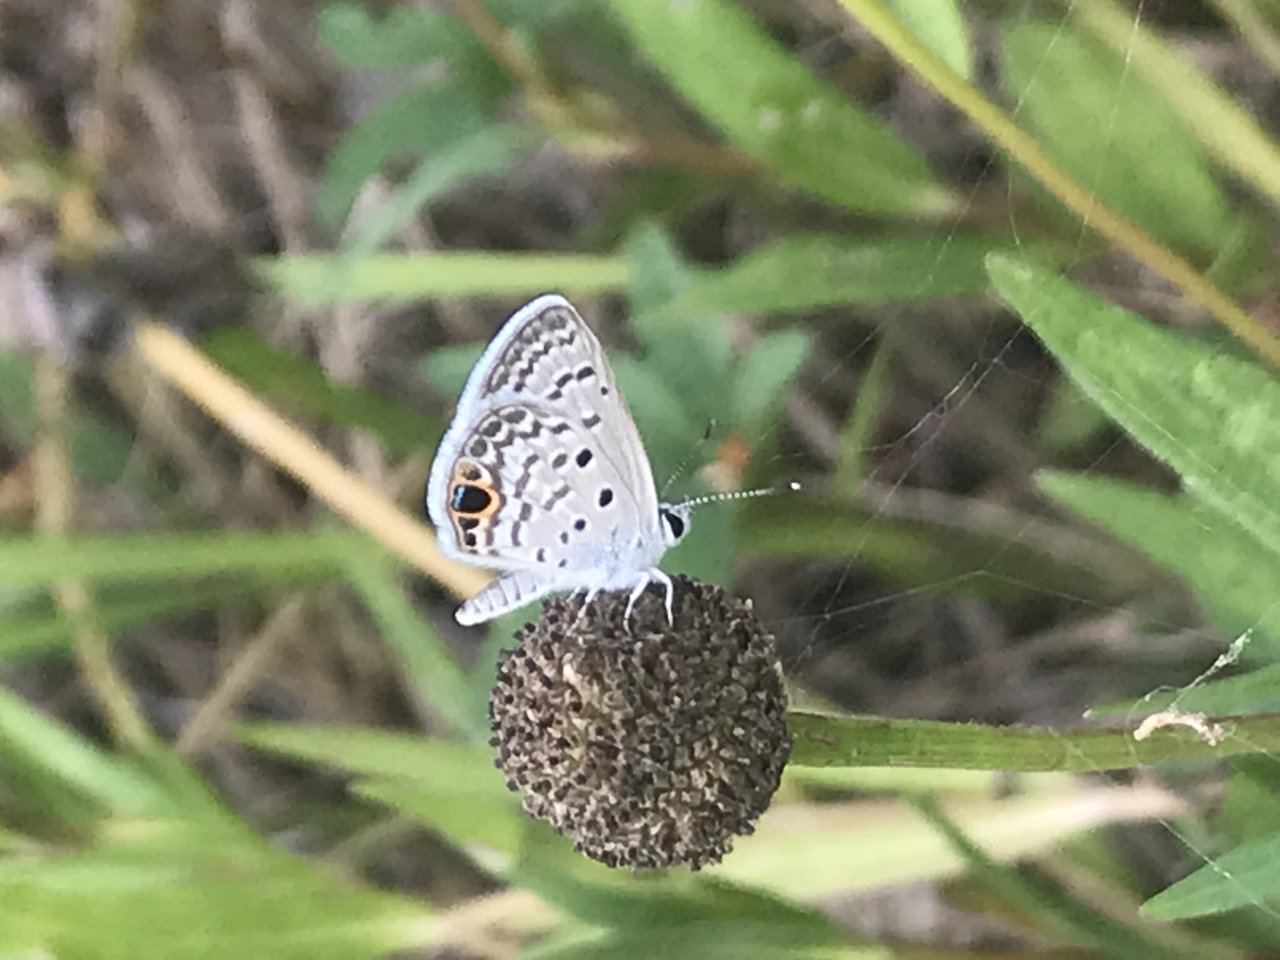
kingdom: Animalia
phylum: Arthropoda
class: Insecta
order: Lepidoptera
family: Lycaenidae
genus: Hemiargus
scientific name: Hemiargus ceraunus
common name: Ceraunus Blue
